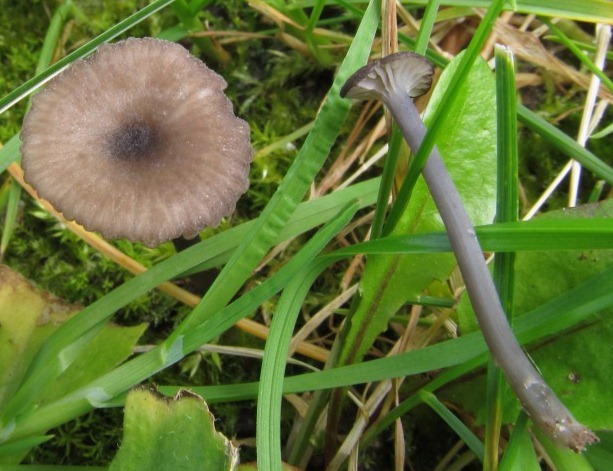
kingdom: Fungi
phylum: Basidiomycota
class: Agaricomycetes
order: Agaricales
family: Entolomataceae
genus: Entoloma
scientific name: Entoloma incarnatofuscescens
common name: tragt-rødblad
